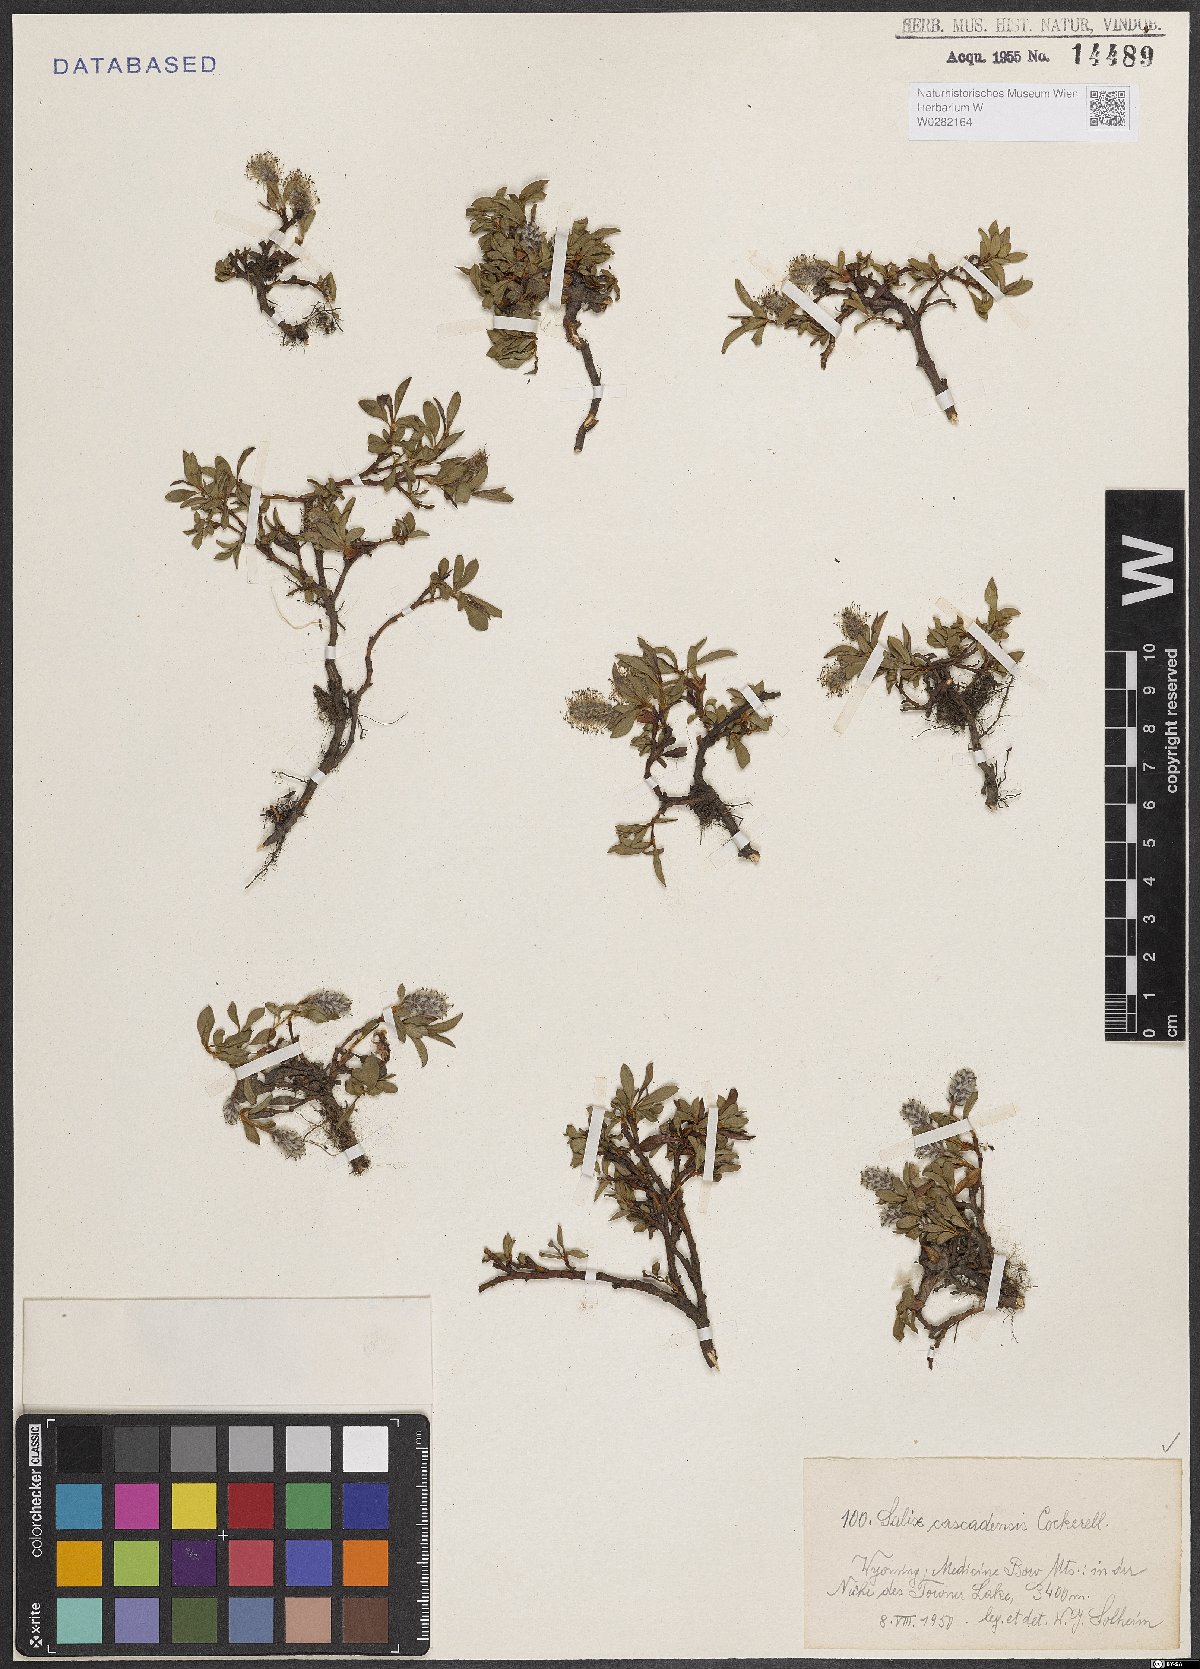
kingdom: Plantae
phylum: Tracheophyta
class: Magnoliopsida
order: Malpighiales
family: Salicaceae
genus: Salix
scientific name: Salix cascadensis
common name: Cascade willow
